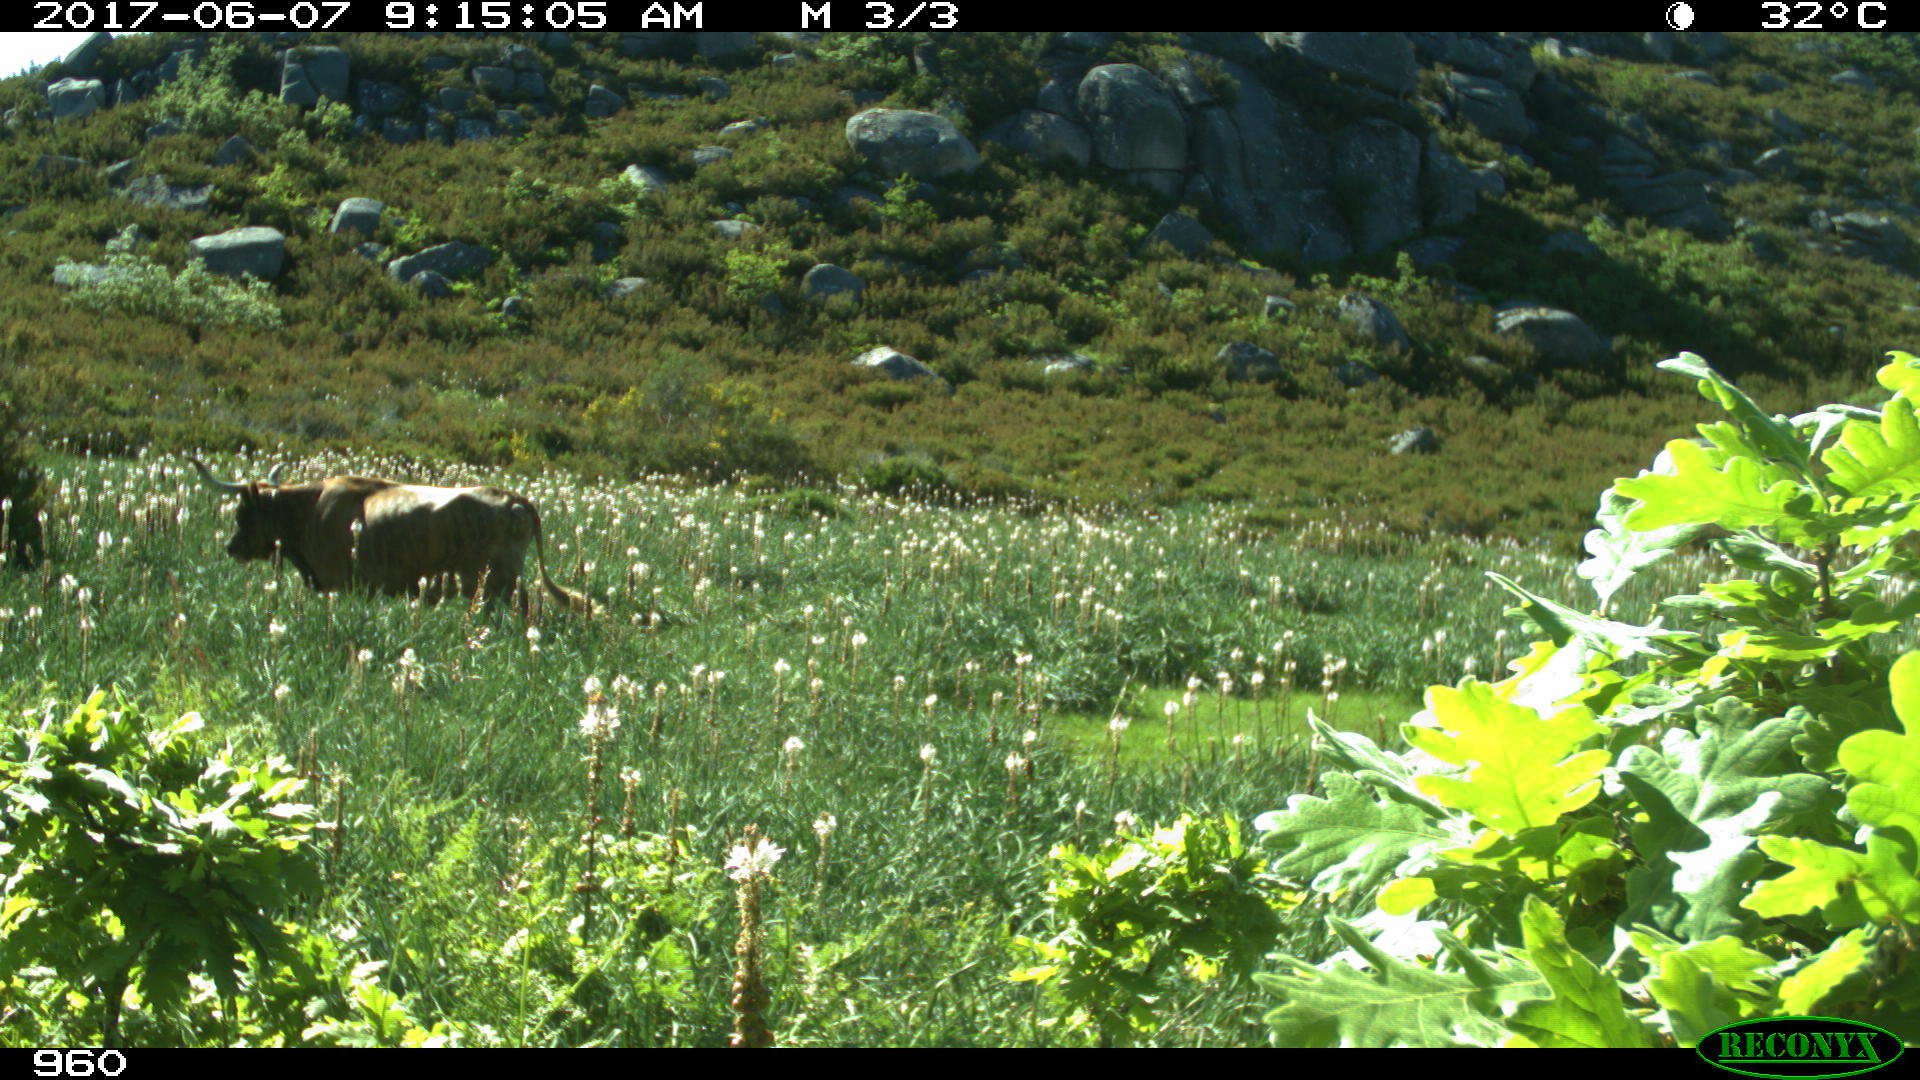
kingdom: Animalia
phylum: Chordata
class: Mammalia
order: Artiodactyla
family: Bovidae
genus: Bos
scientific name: Bos taurus
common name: Domesticated cattle
